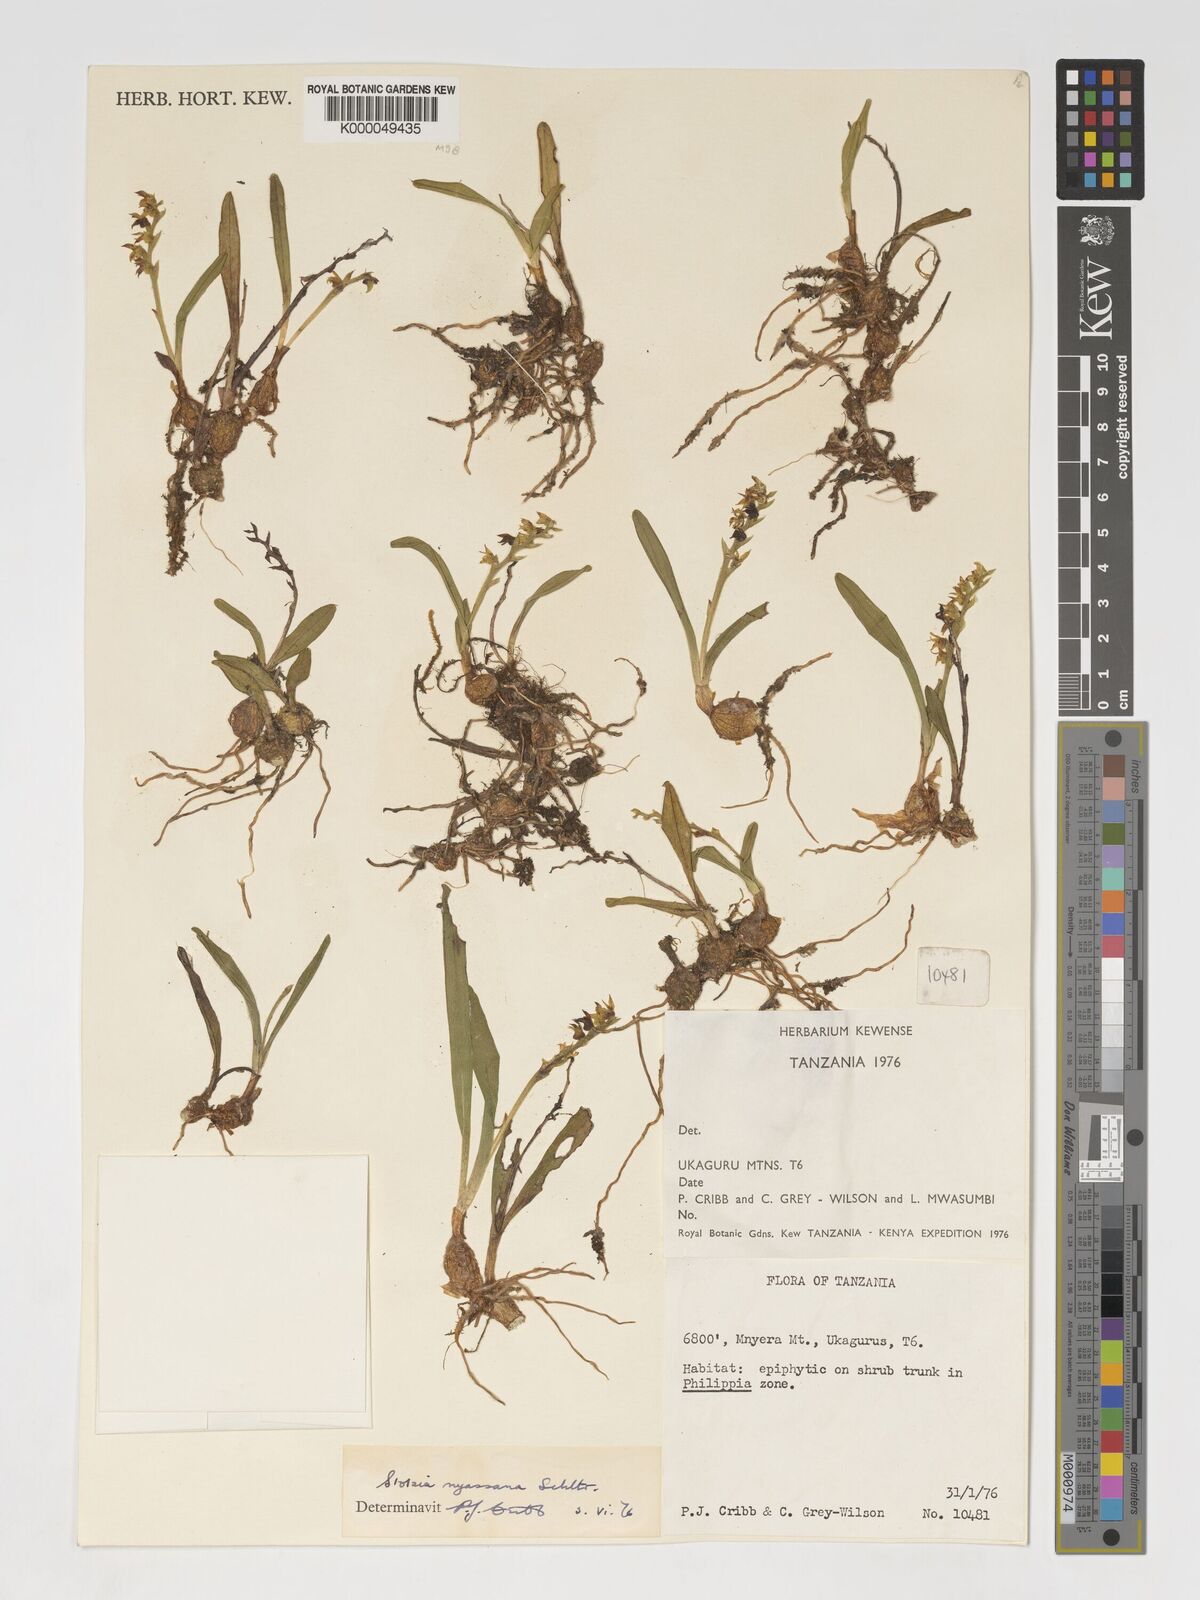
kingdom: Plantae
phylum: Tracheophyta
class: Liliopsida
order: Asparagales
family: Orchidaceae
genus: Porpax
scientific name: Porpax nyassana
